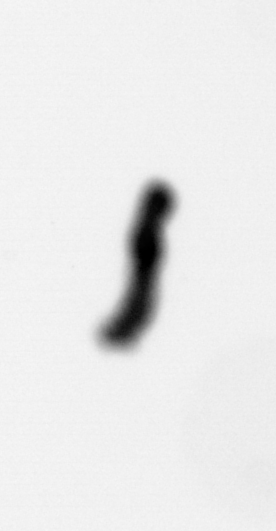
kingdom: Animalia
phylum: Annelida
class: Polychaeta
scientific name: Polychaeta
